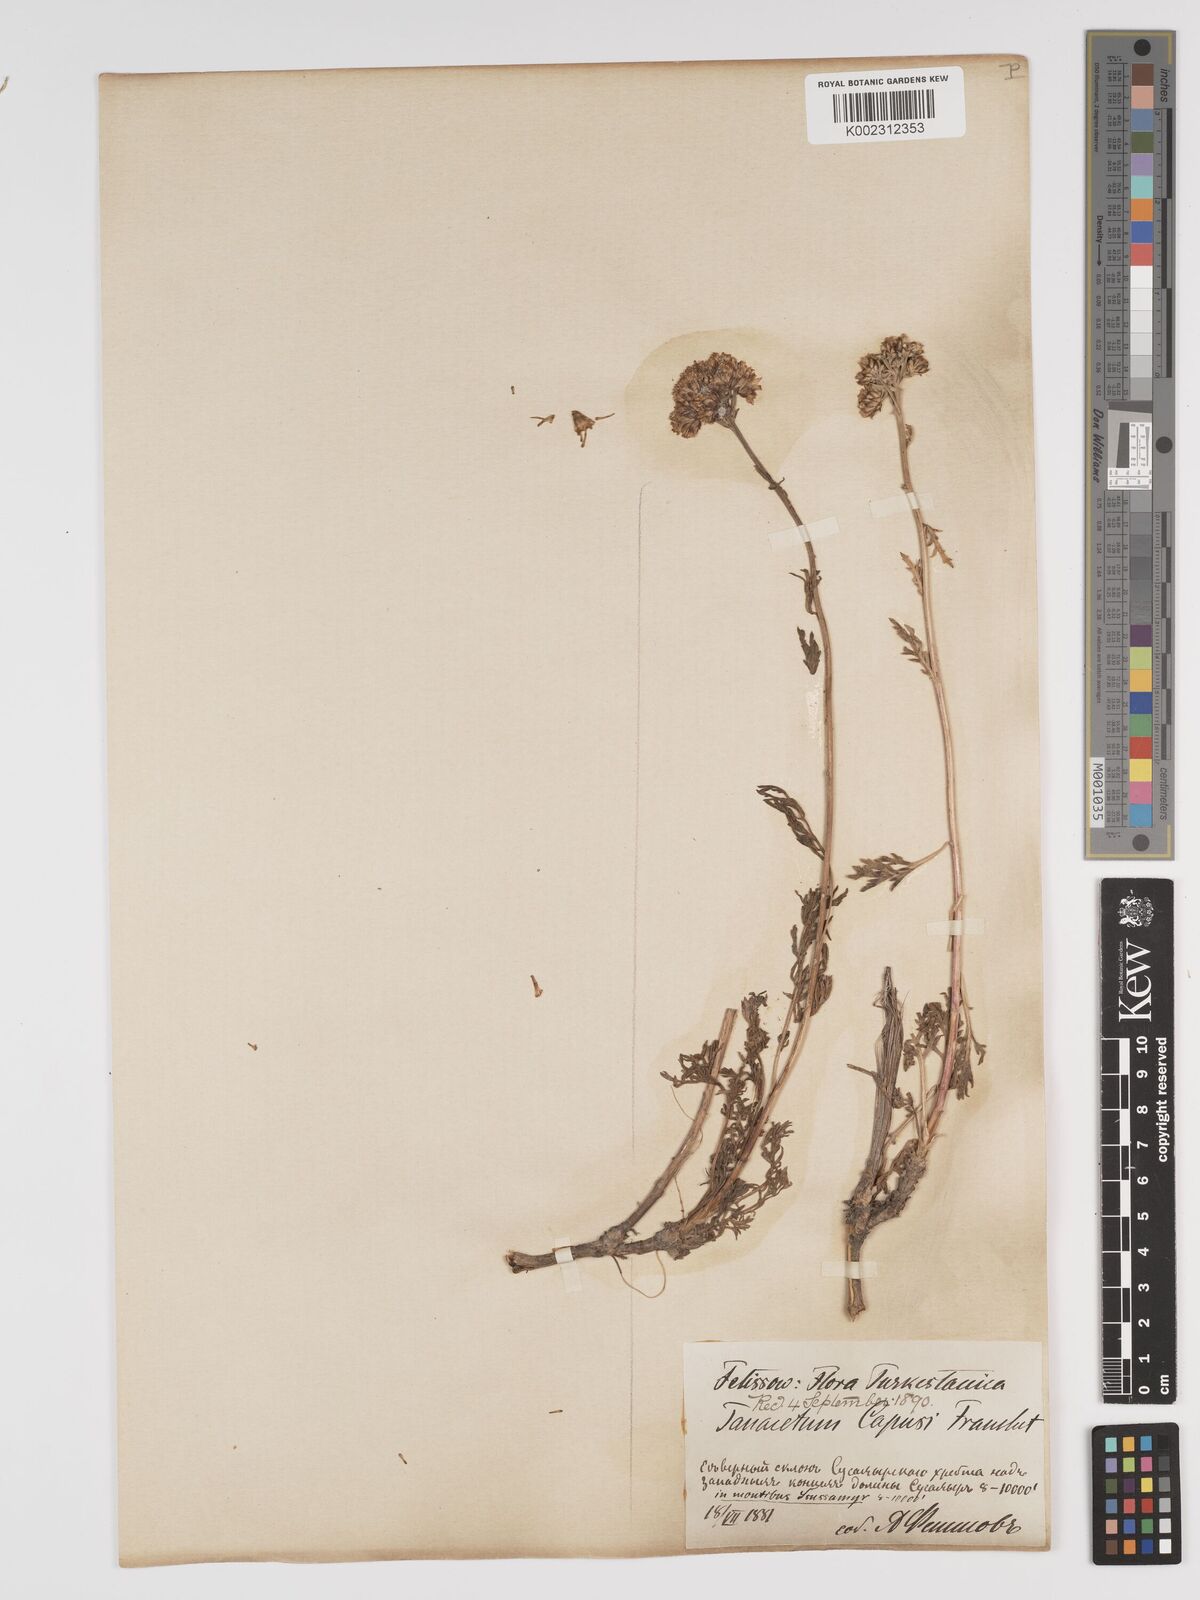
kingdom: Plantae
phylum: Tracheophyta
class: Magnoliopsida
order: Asterales
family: Asteraceae
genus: Tanacetum
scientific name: Tanacetum
